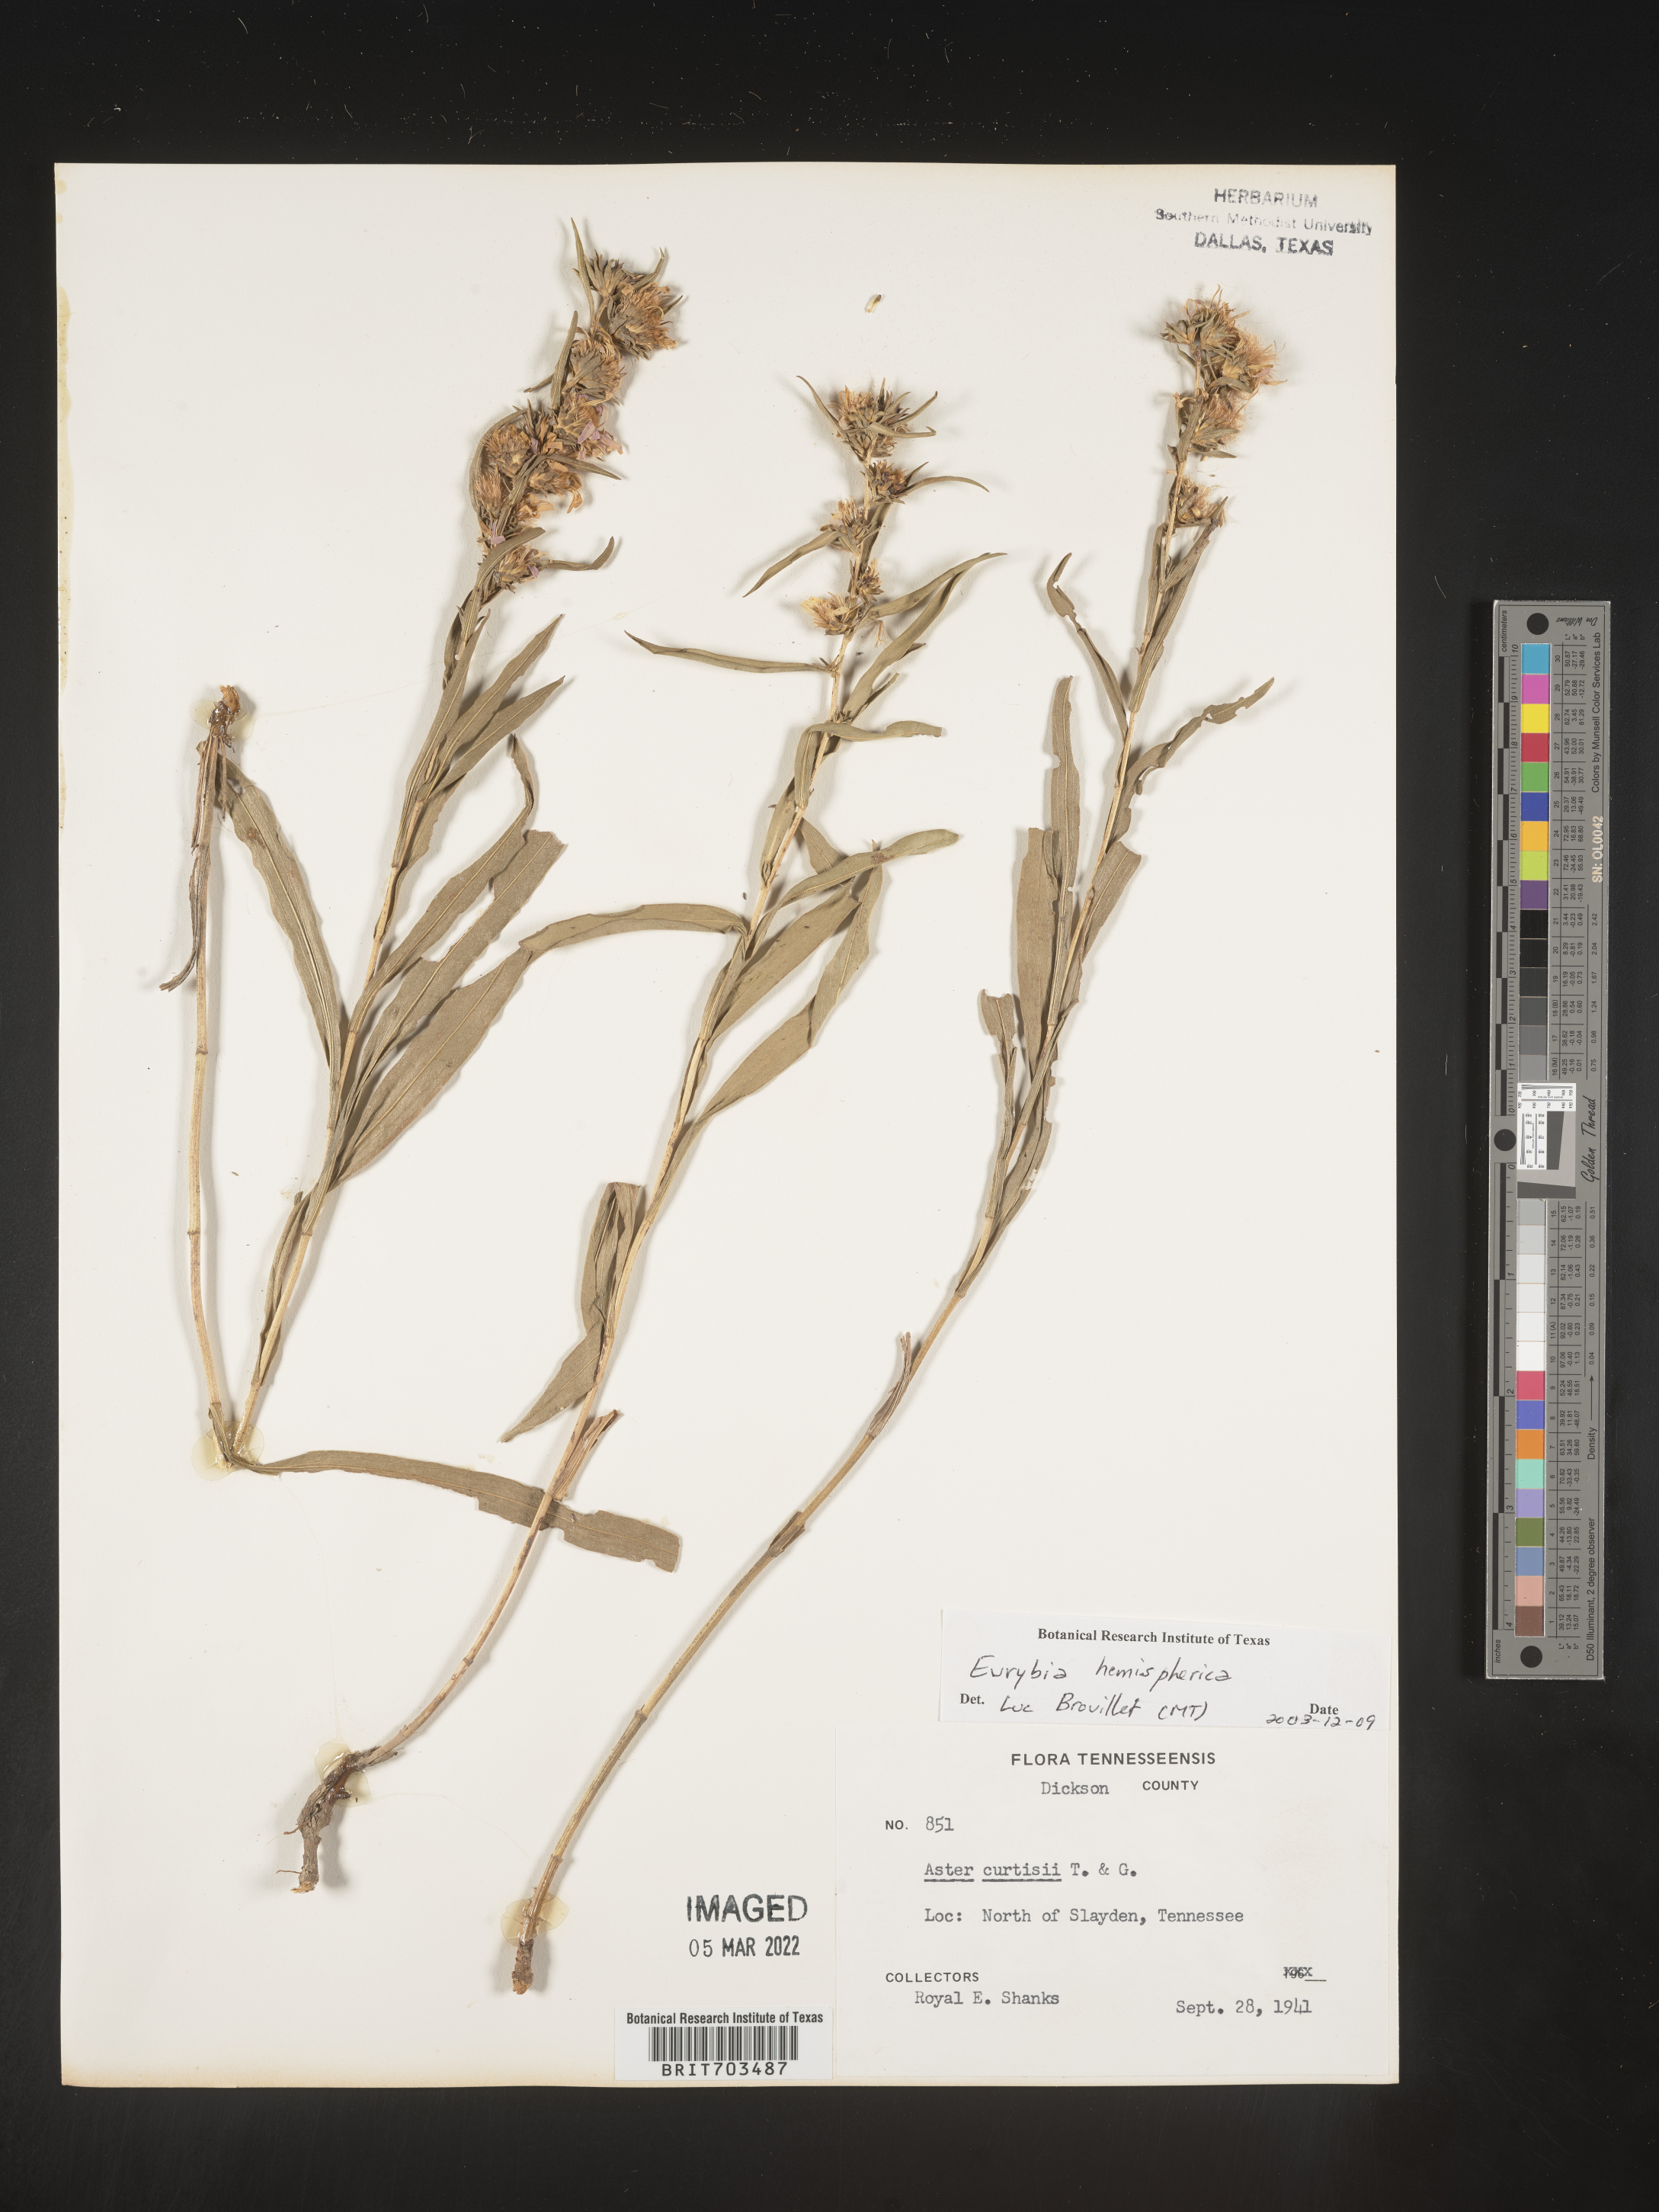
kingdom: Plantae
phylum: Tracheophyta
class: Magnoliopsida
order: Asterales
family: Asteraceae
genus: Eurybia
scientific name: Eurybia hemispherica
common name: Showy aster
